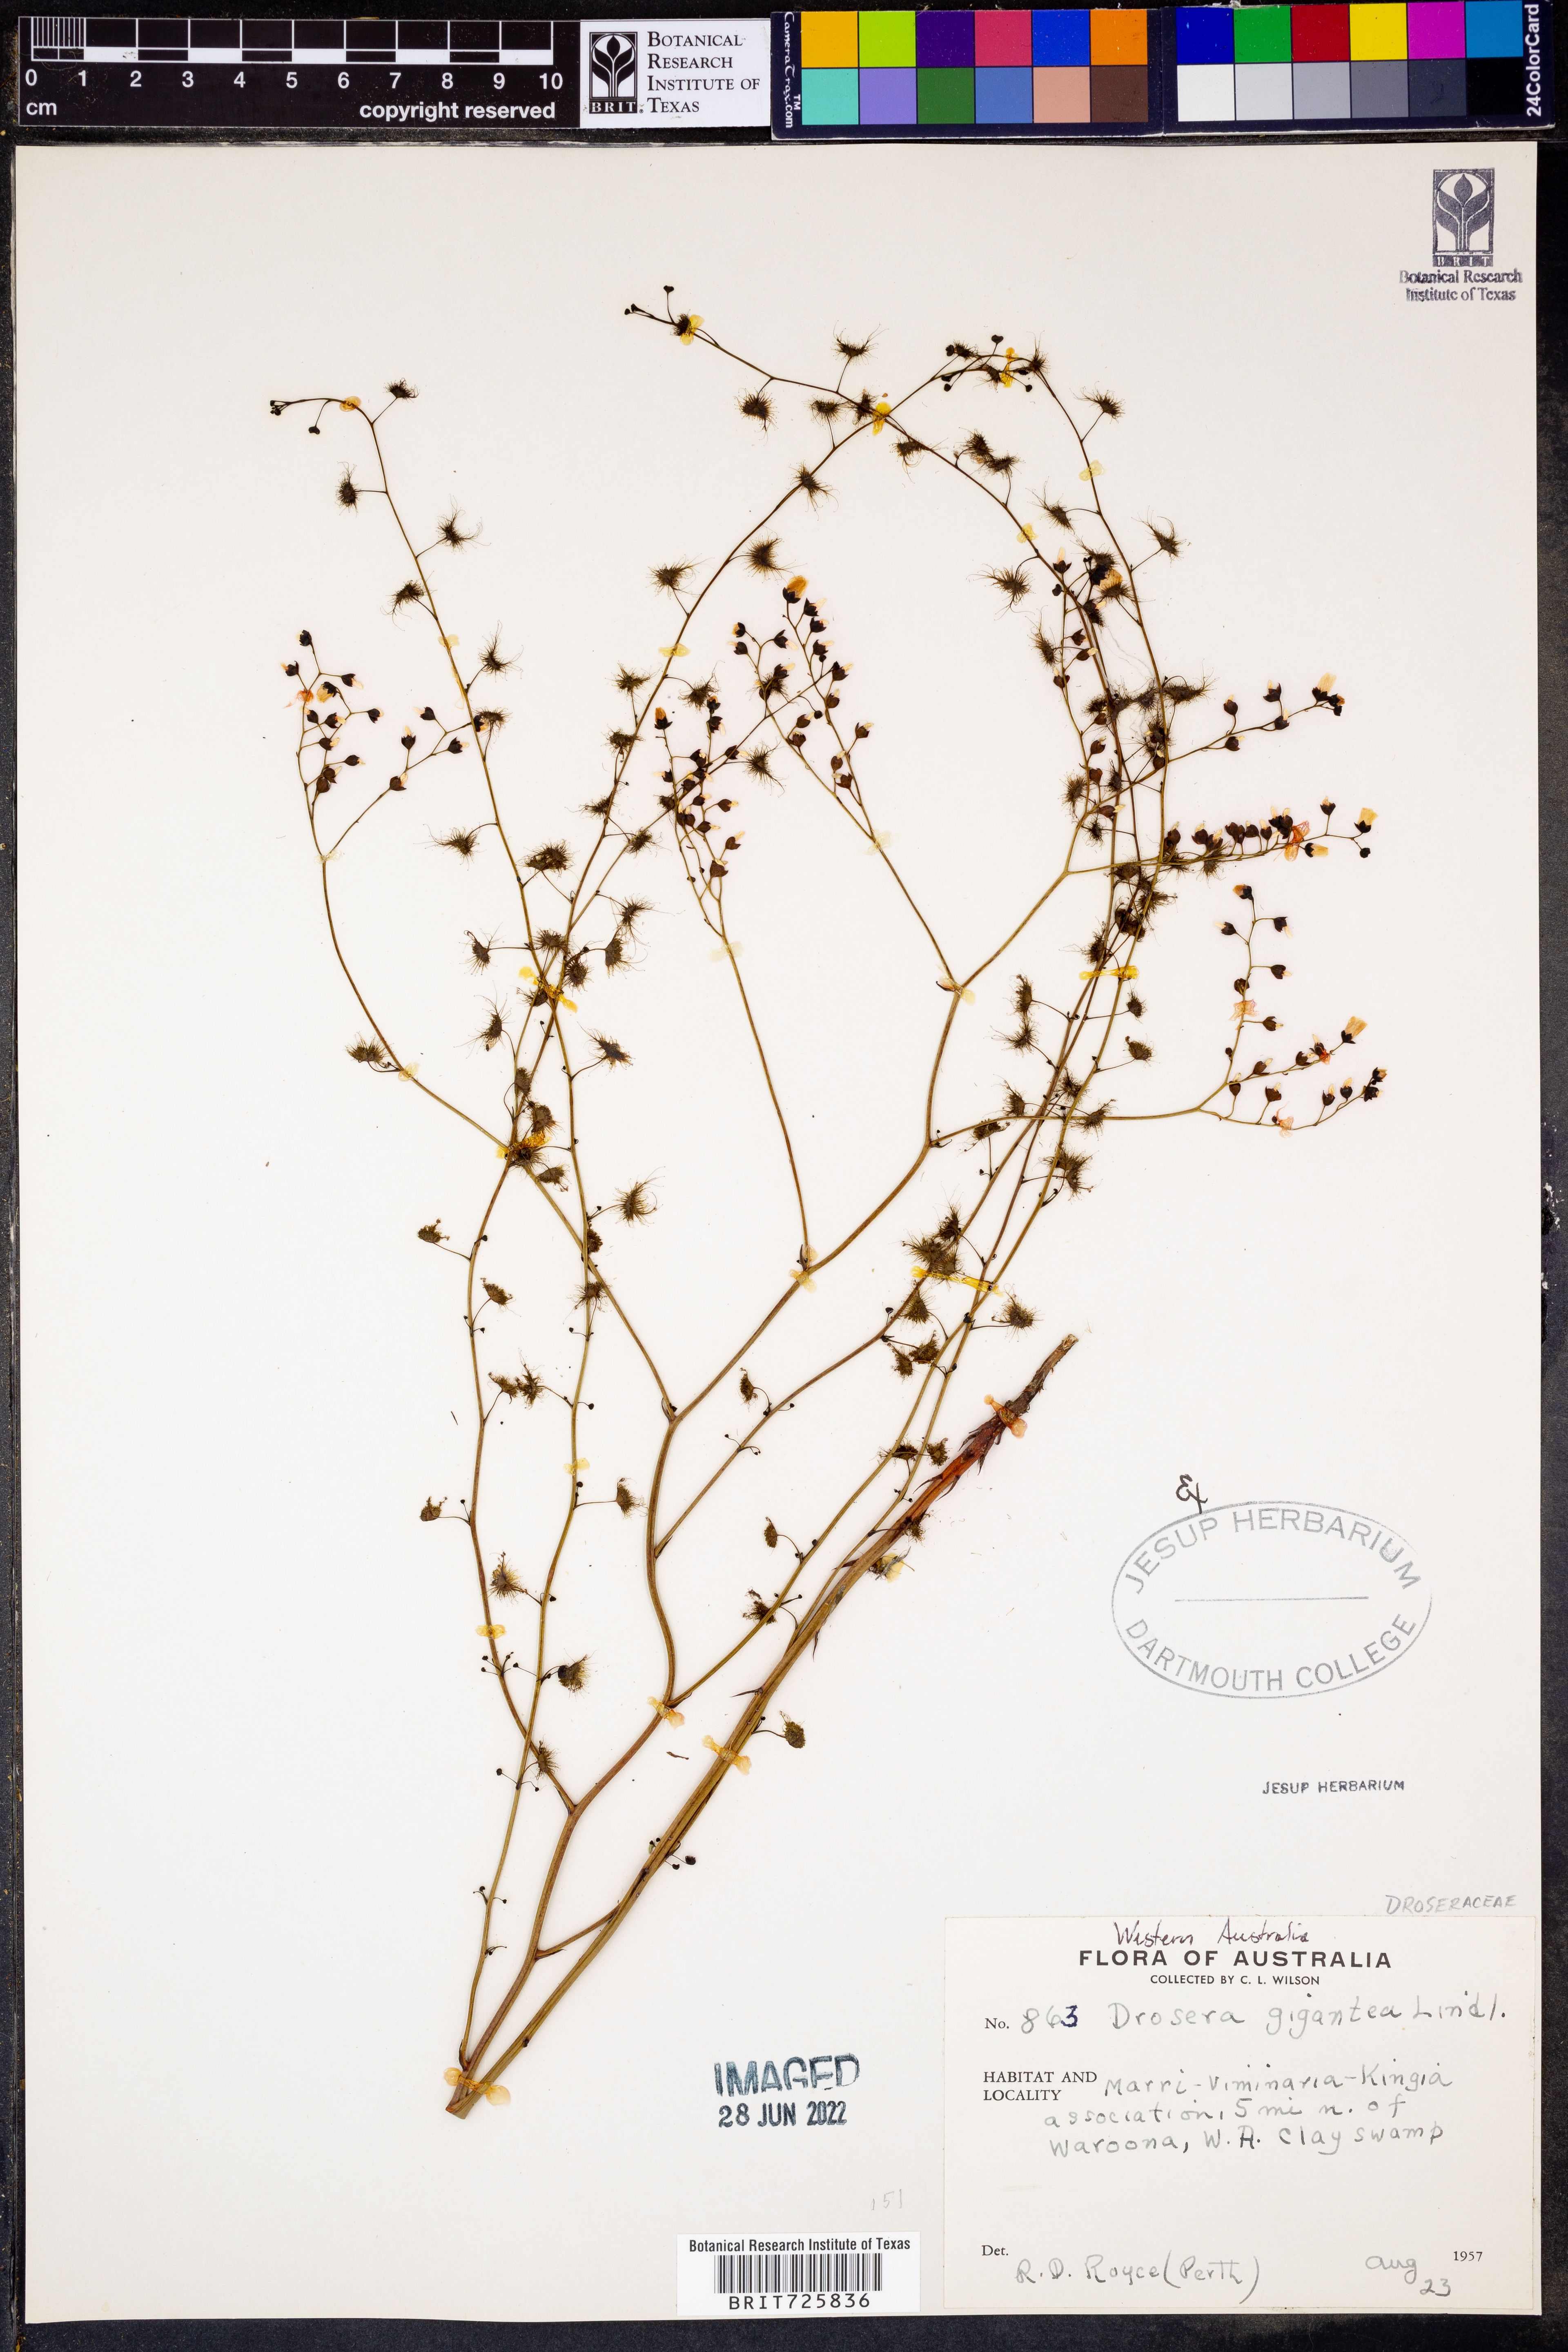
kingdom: Plantae
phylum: Tracheophyta
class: Magnoliopsida
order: Caryophyllales
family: Droseraceae
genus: Drosera
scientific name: Drosera gigantea
